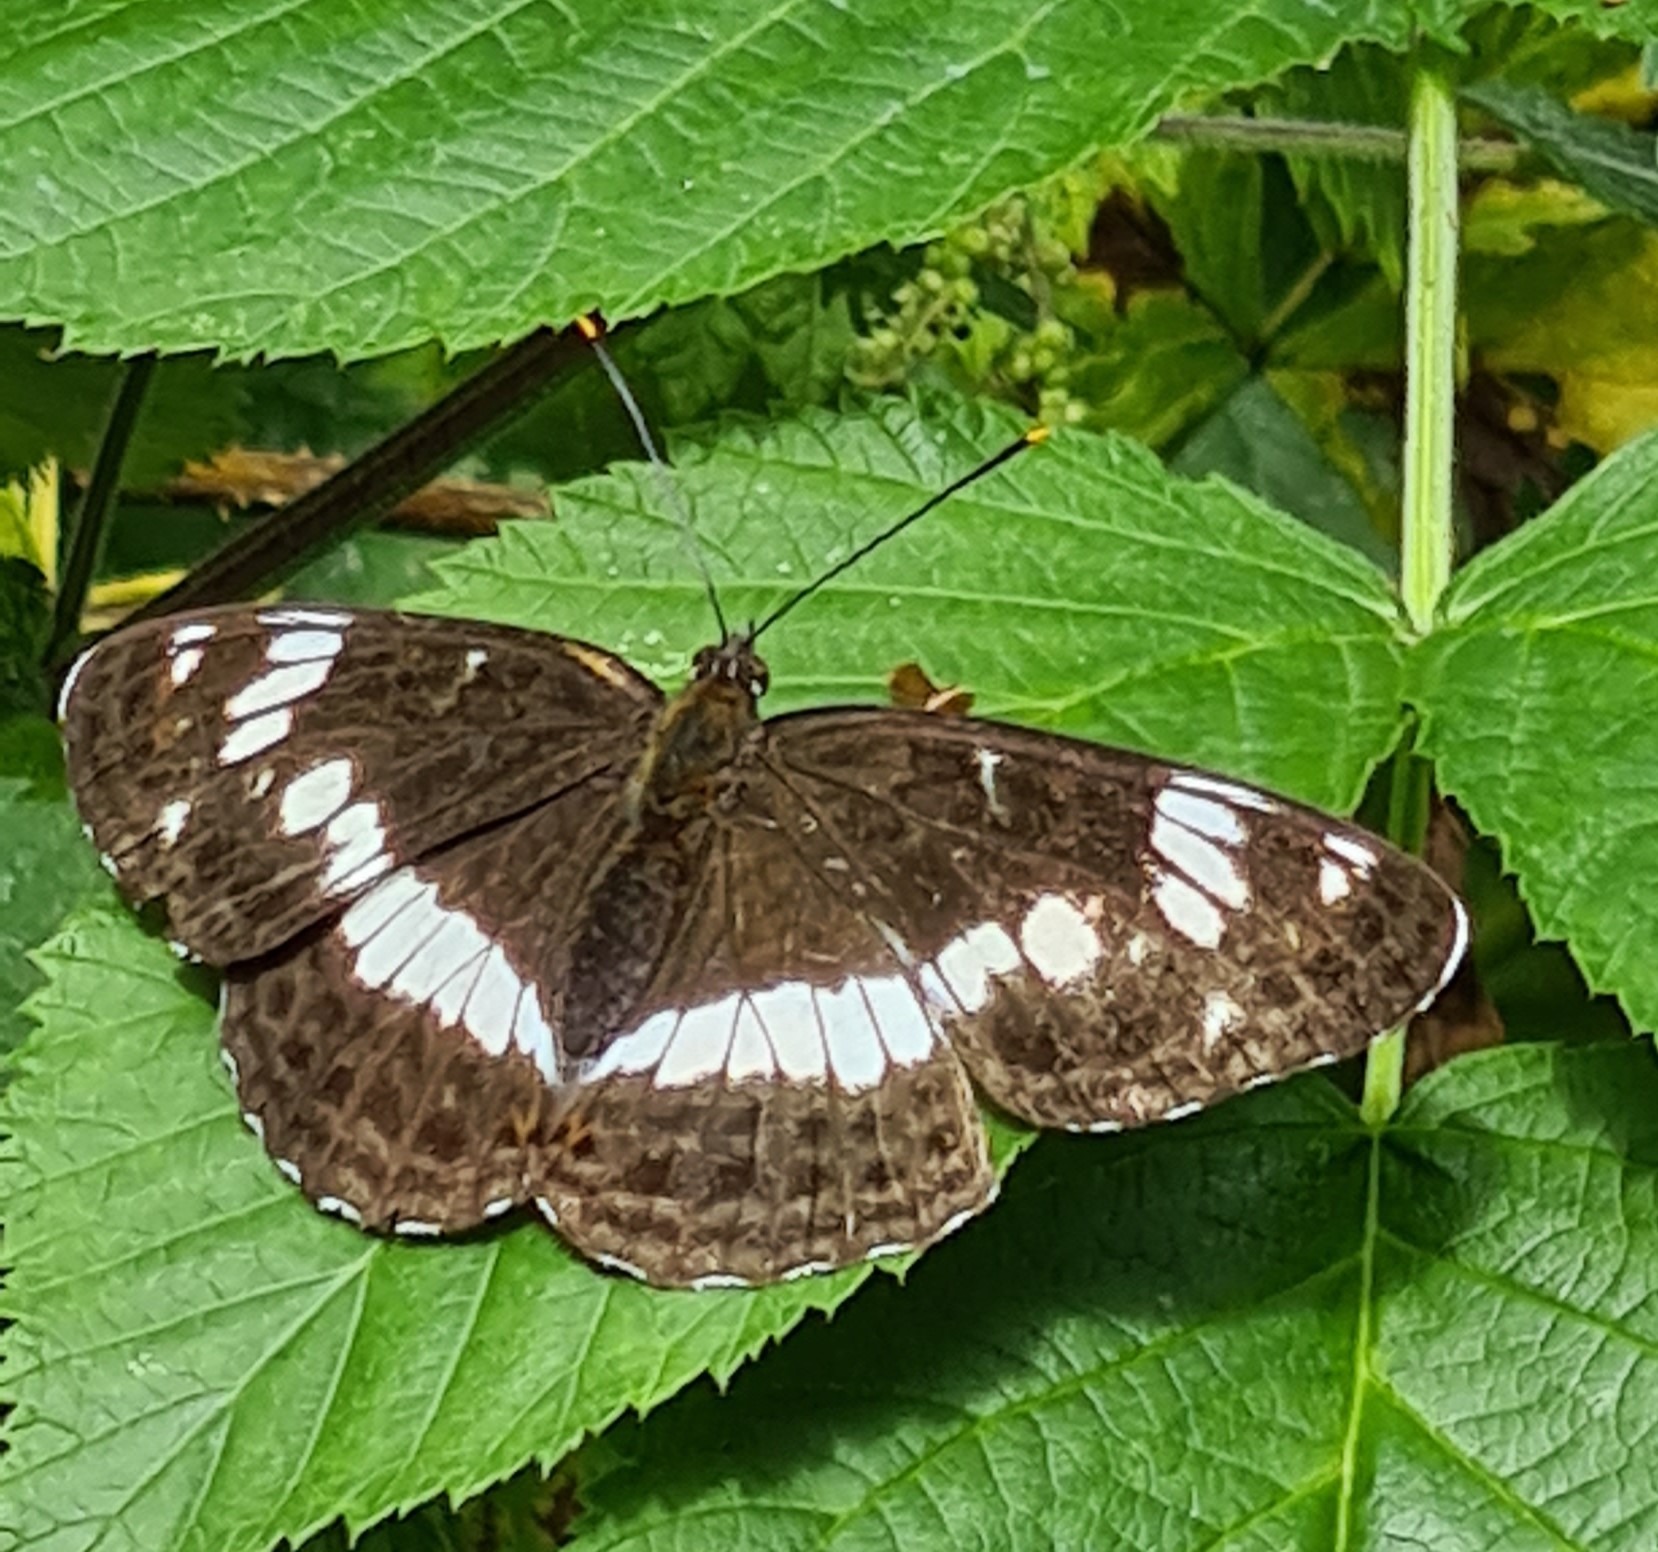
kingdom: Animalia
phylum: Arthropoda
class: Insecta
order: Lepidoptera
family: Nymphalidae
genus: Ladoga
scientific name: Ladoga camilla
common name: Hvid admiral
